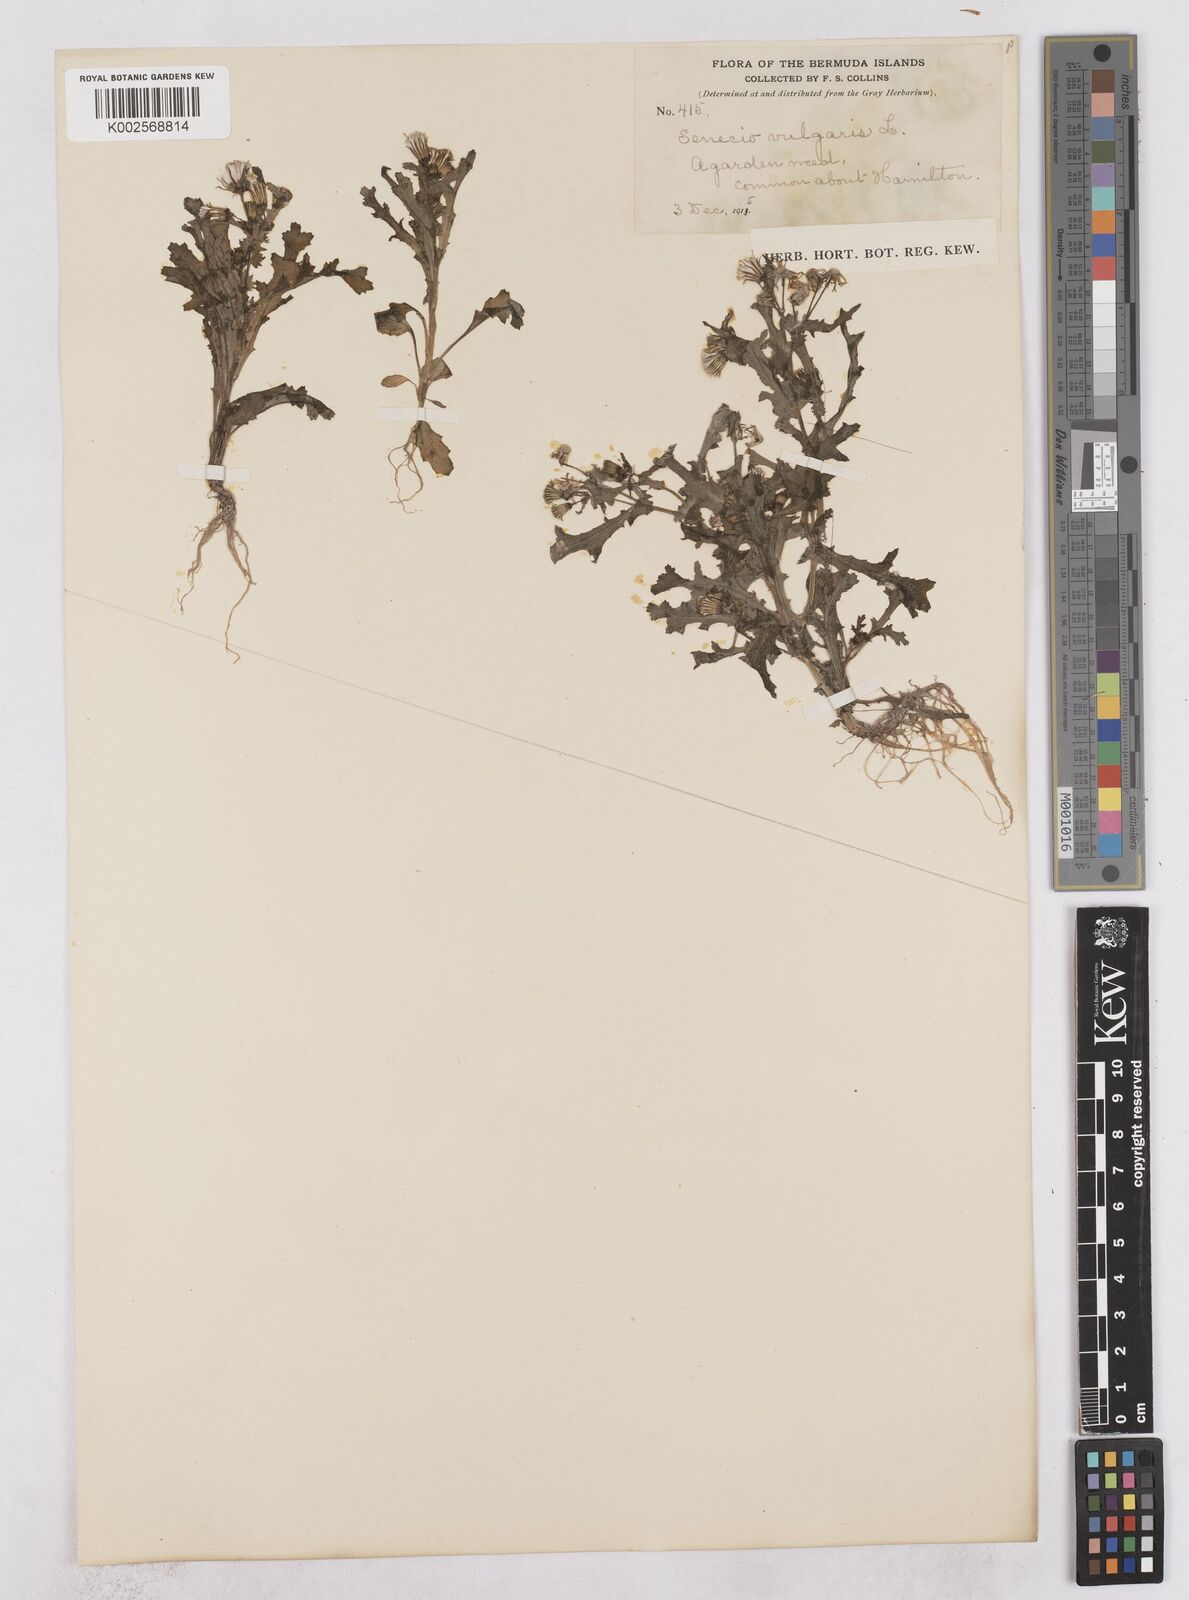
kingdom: Plantae
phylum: Tracheophyta
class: Magnoliopsida
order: Asterales
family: Asteraceae
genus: Senecio
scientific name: Senecio vulgaris
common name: Old-man-in-the-spring
